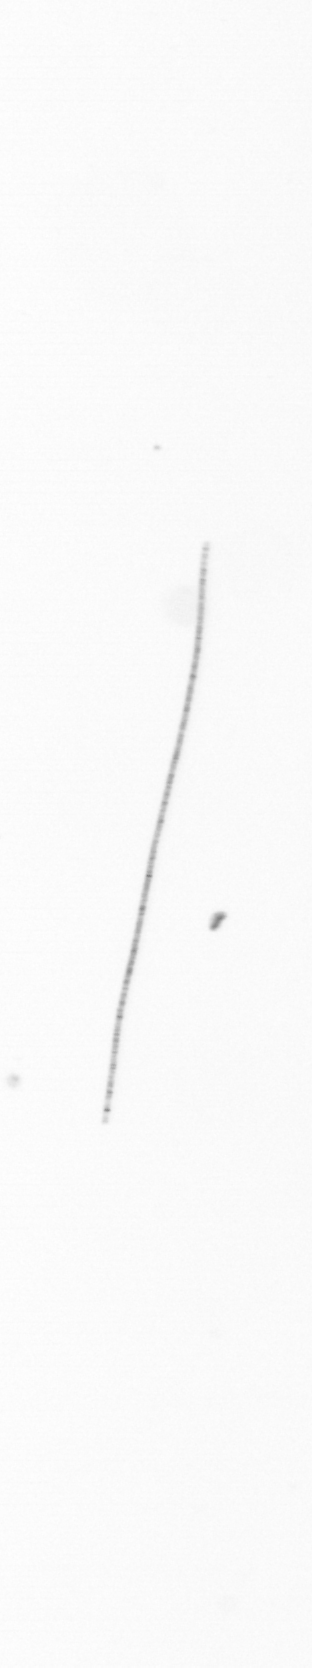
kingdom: Chromista
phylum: Ochrophyta
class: Bacillariophyceae
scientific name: Bacillariophyceae
